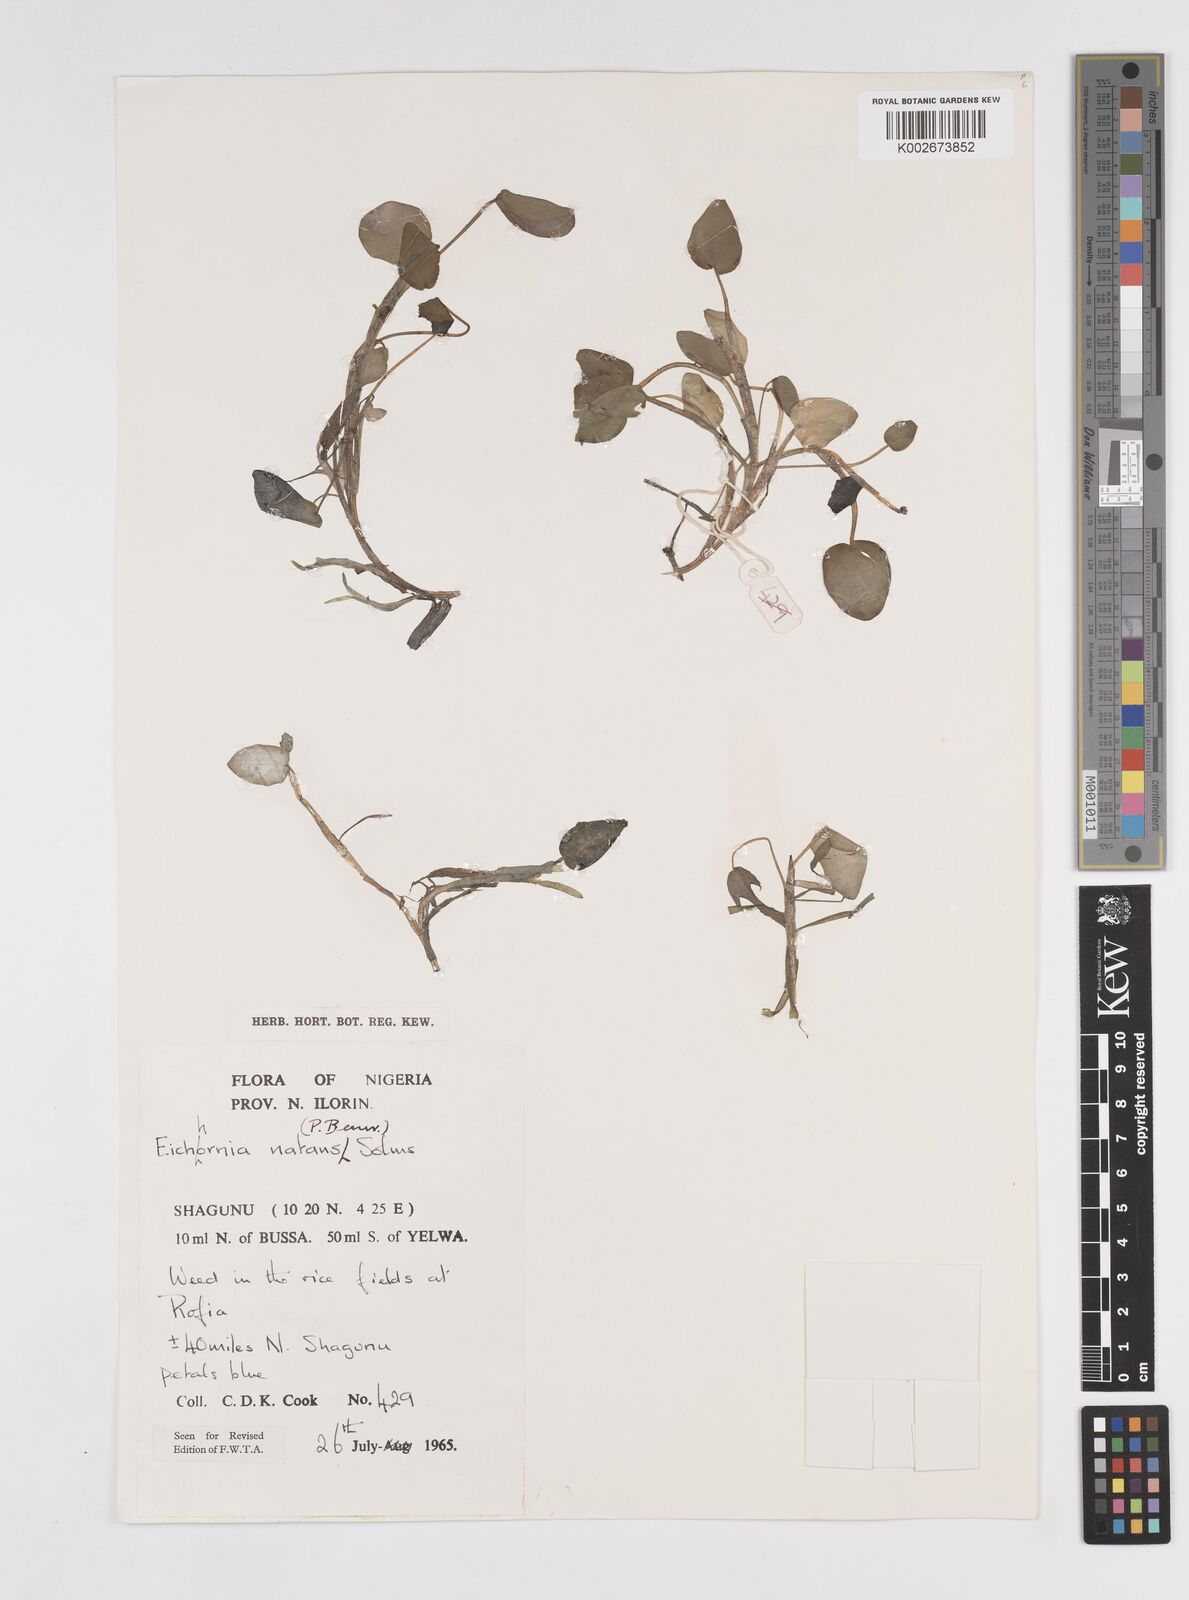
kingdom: Plantae
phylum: Tracheophyta
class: Liliopsida
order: Commelinales
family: Pontederiaceae
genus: Pontederia
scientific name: Pontederia natans
